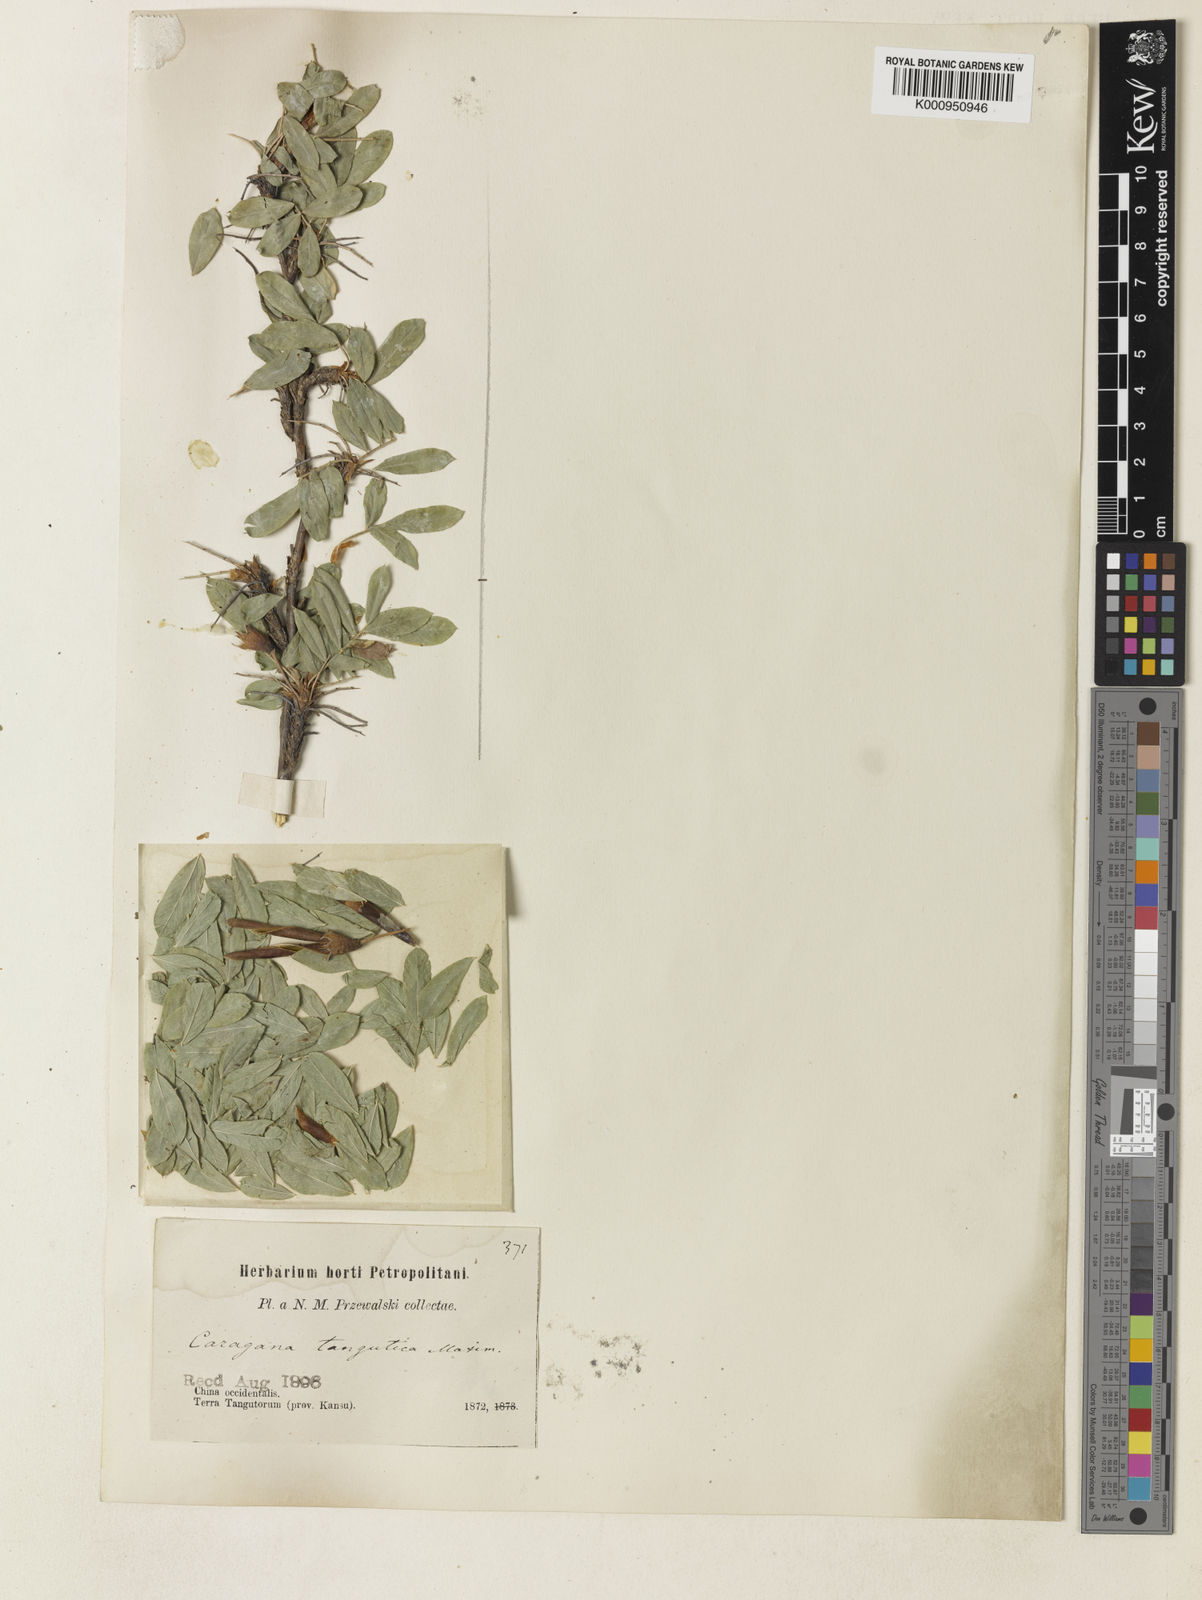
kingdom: Plantae
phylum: Tracheophyta
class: Magnoliopsida
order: Fabales
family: Fabaceae
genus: Caragana
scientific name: Caragana
